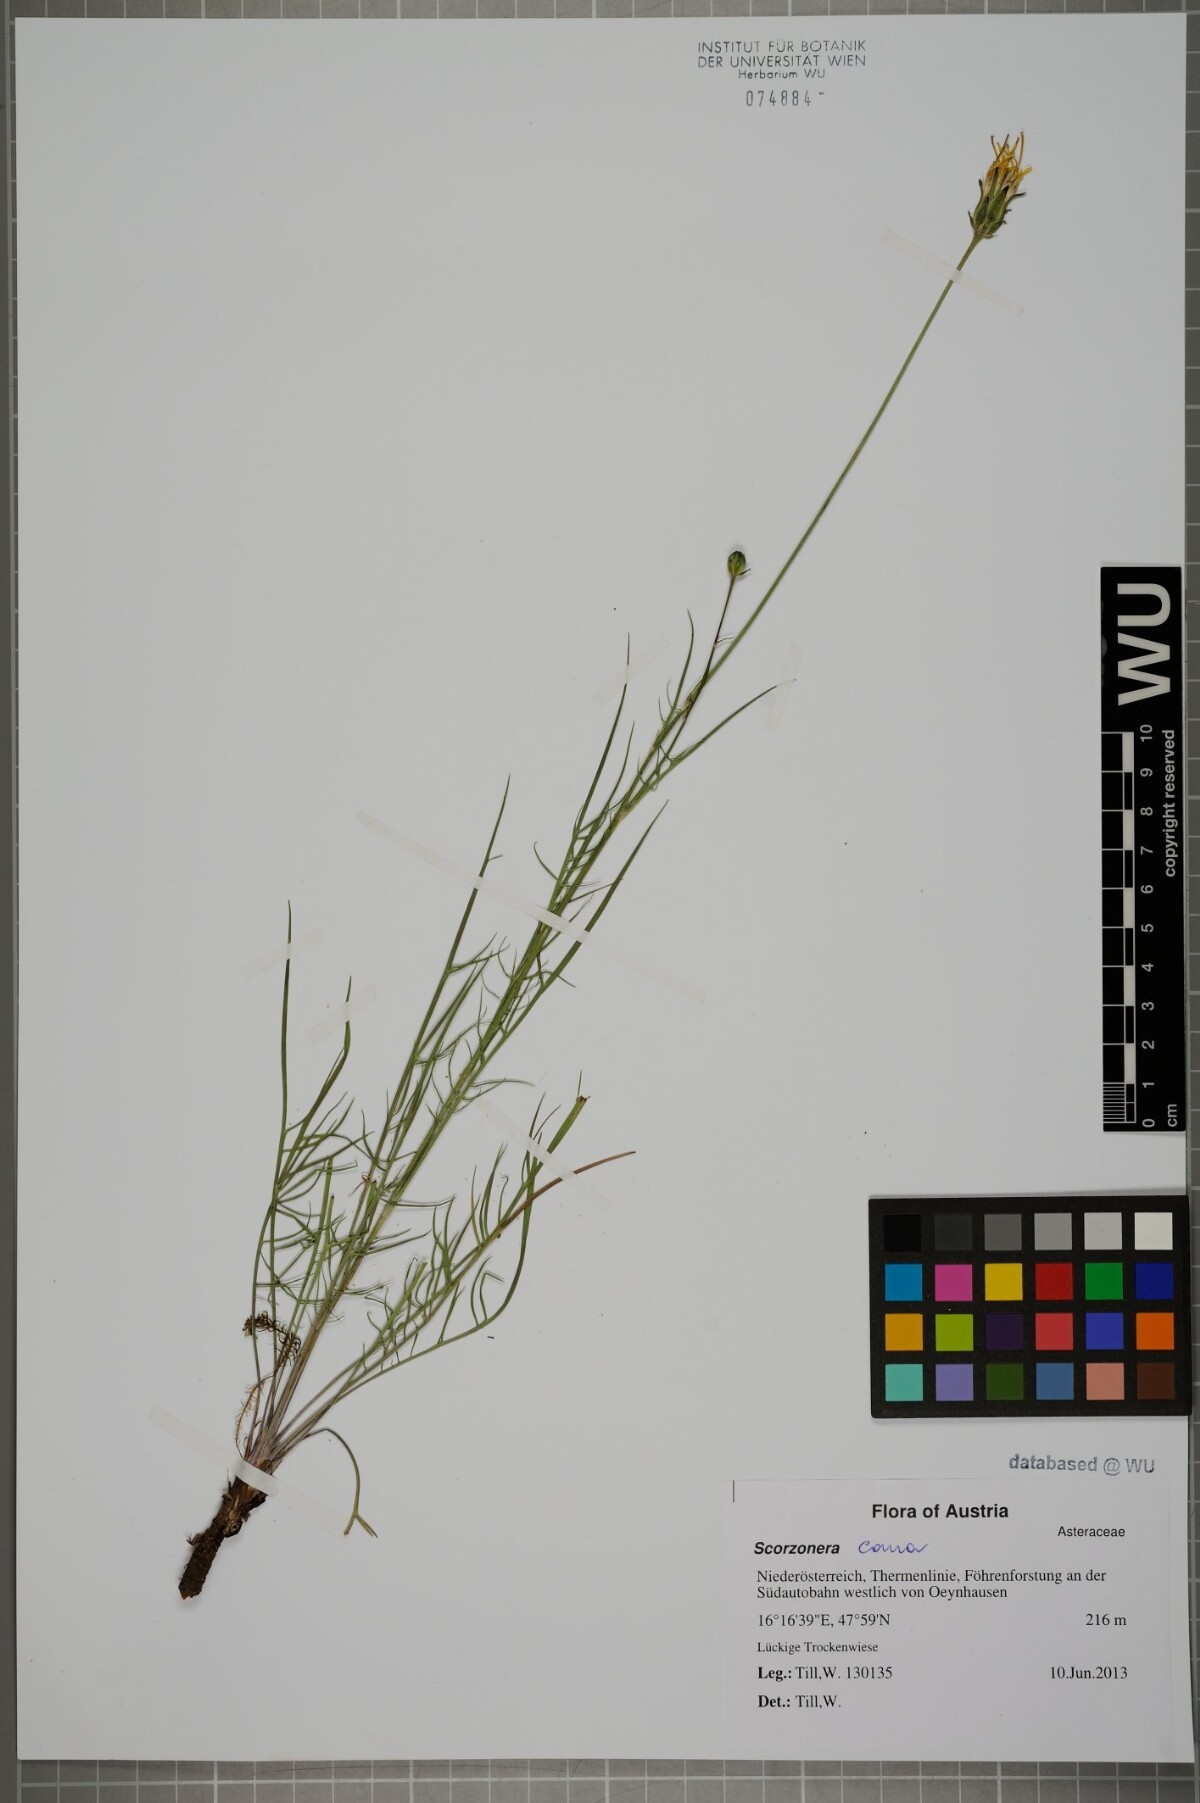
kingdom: Plantae
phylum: Tracheophyta
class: Magnoliopsida
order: Asterales
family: Asteraceae
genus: Scorzonera
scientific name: Scorzonera cana
